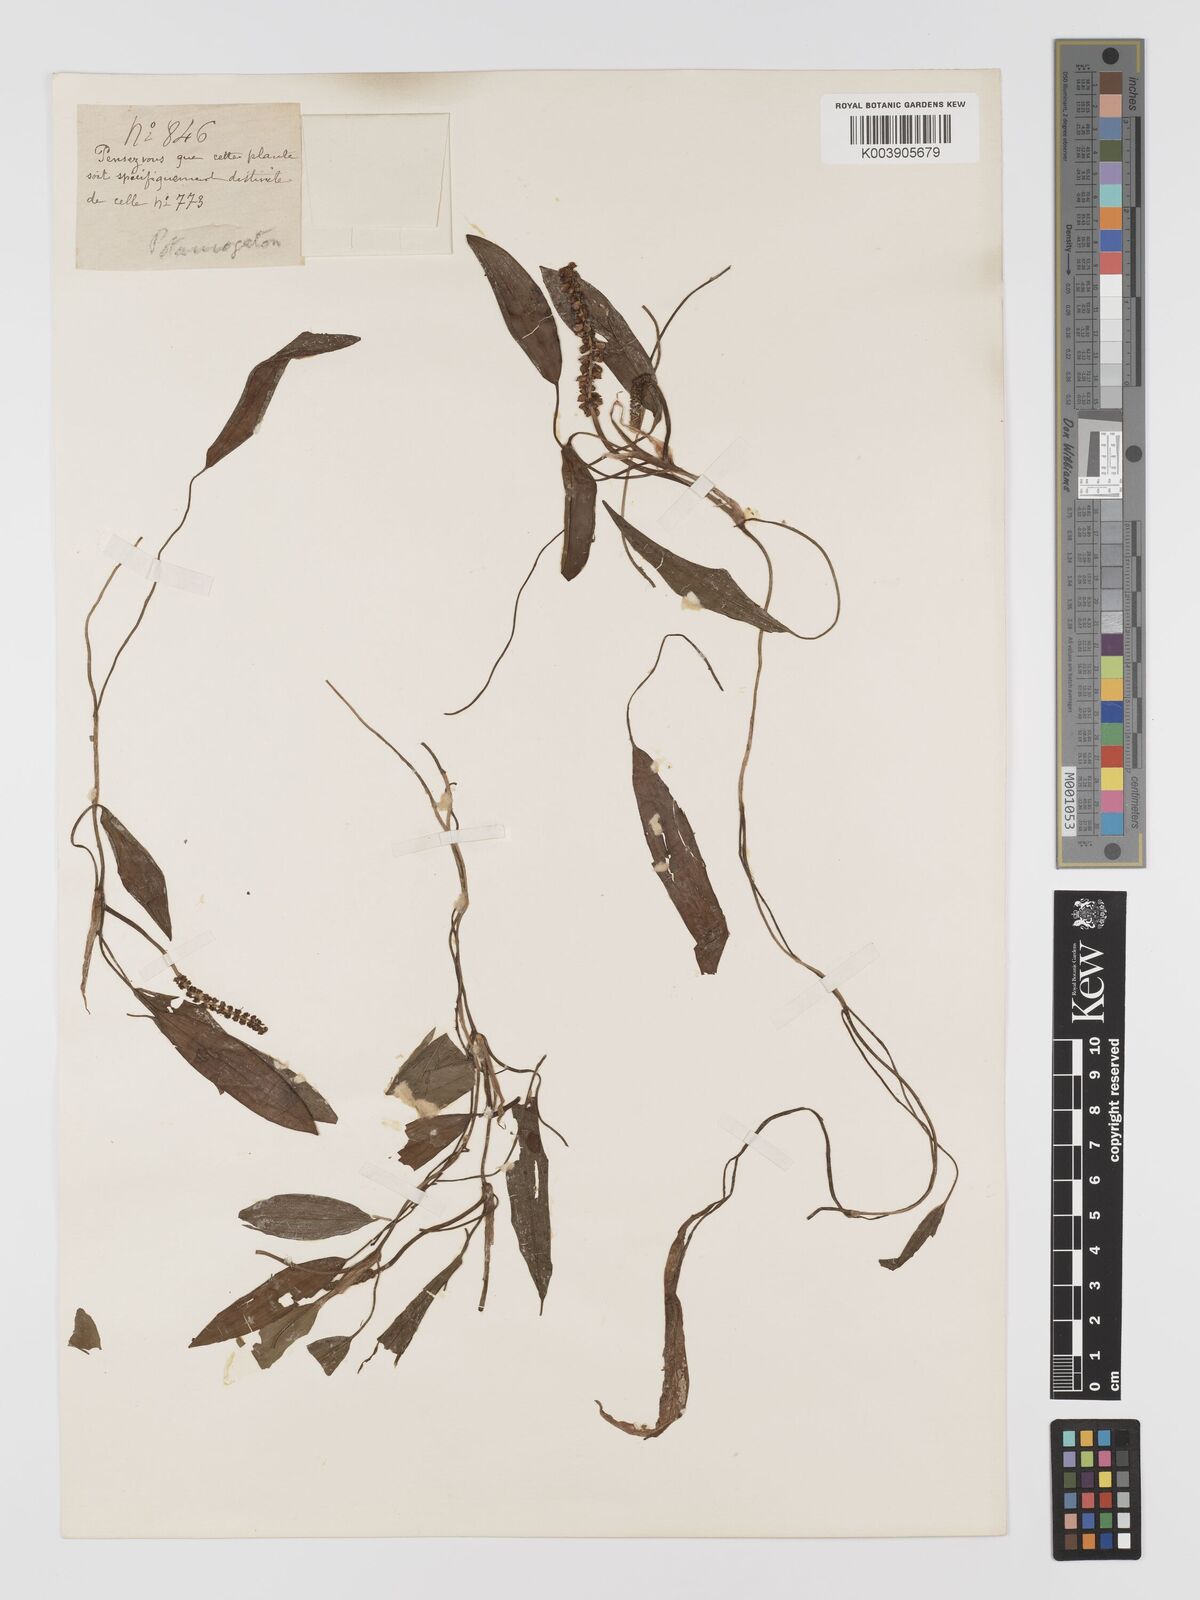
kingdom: Plantae
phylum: Tracheophyta
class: Liliopsida
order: Alismatales
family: Potamogetonaceae
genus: Potamogeton
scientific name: Potamogeton distinctus
